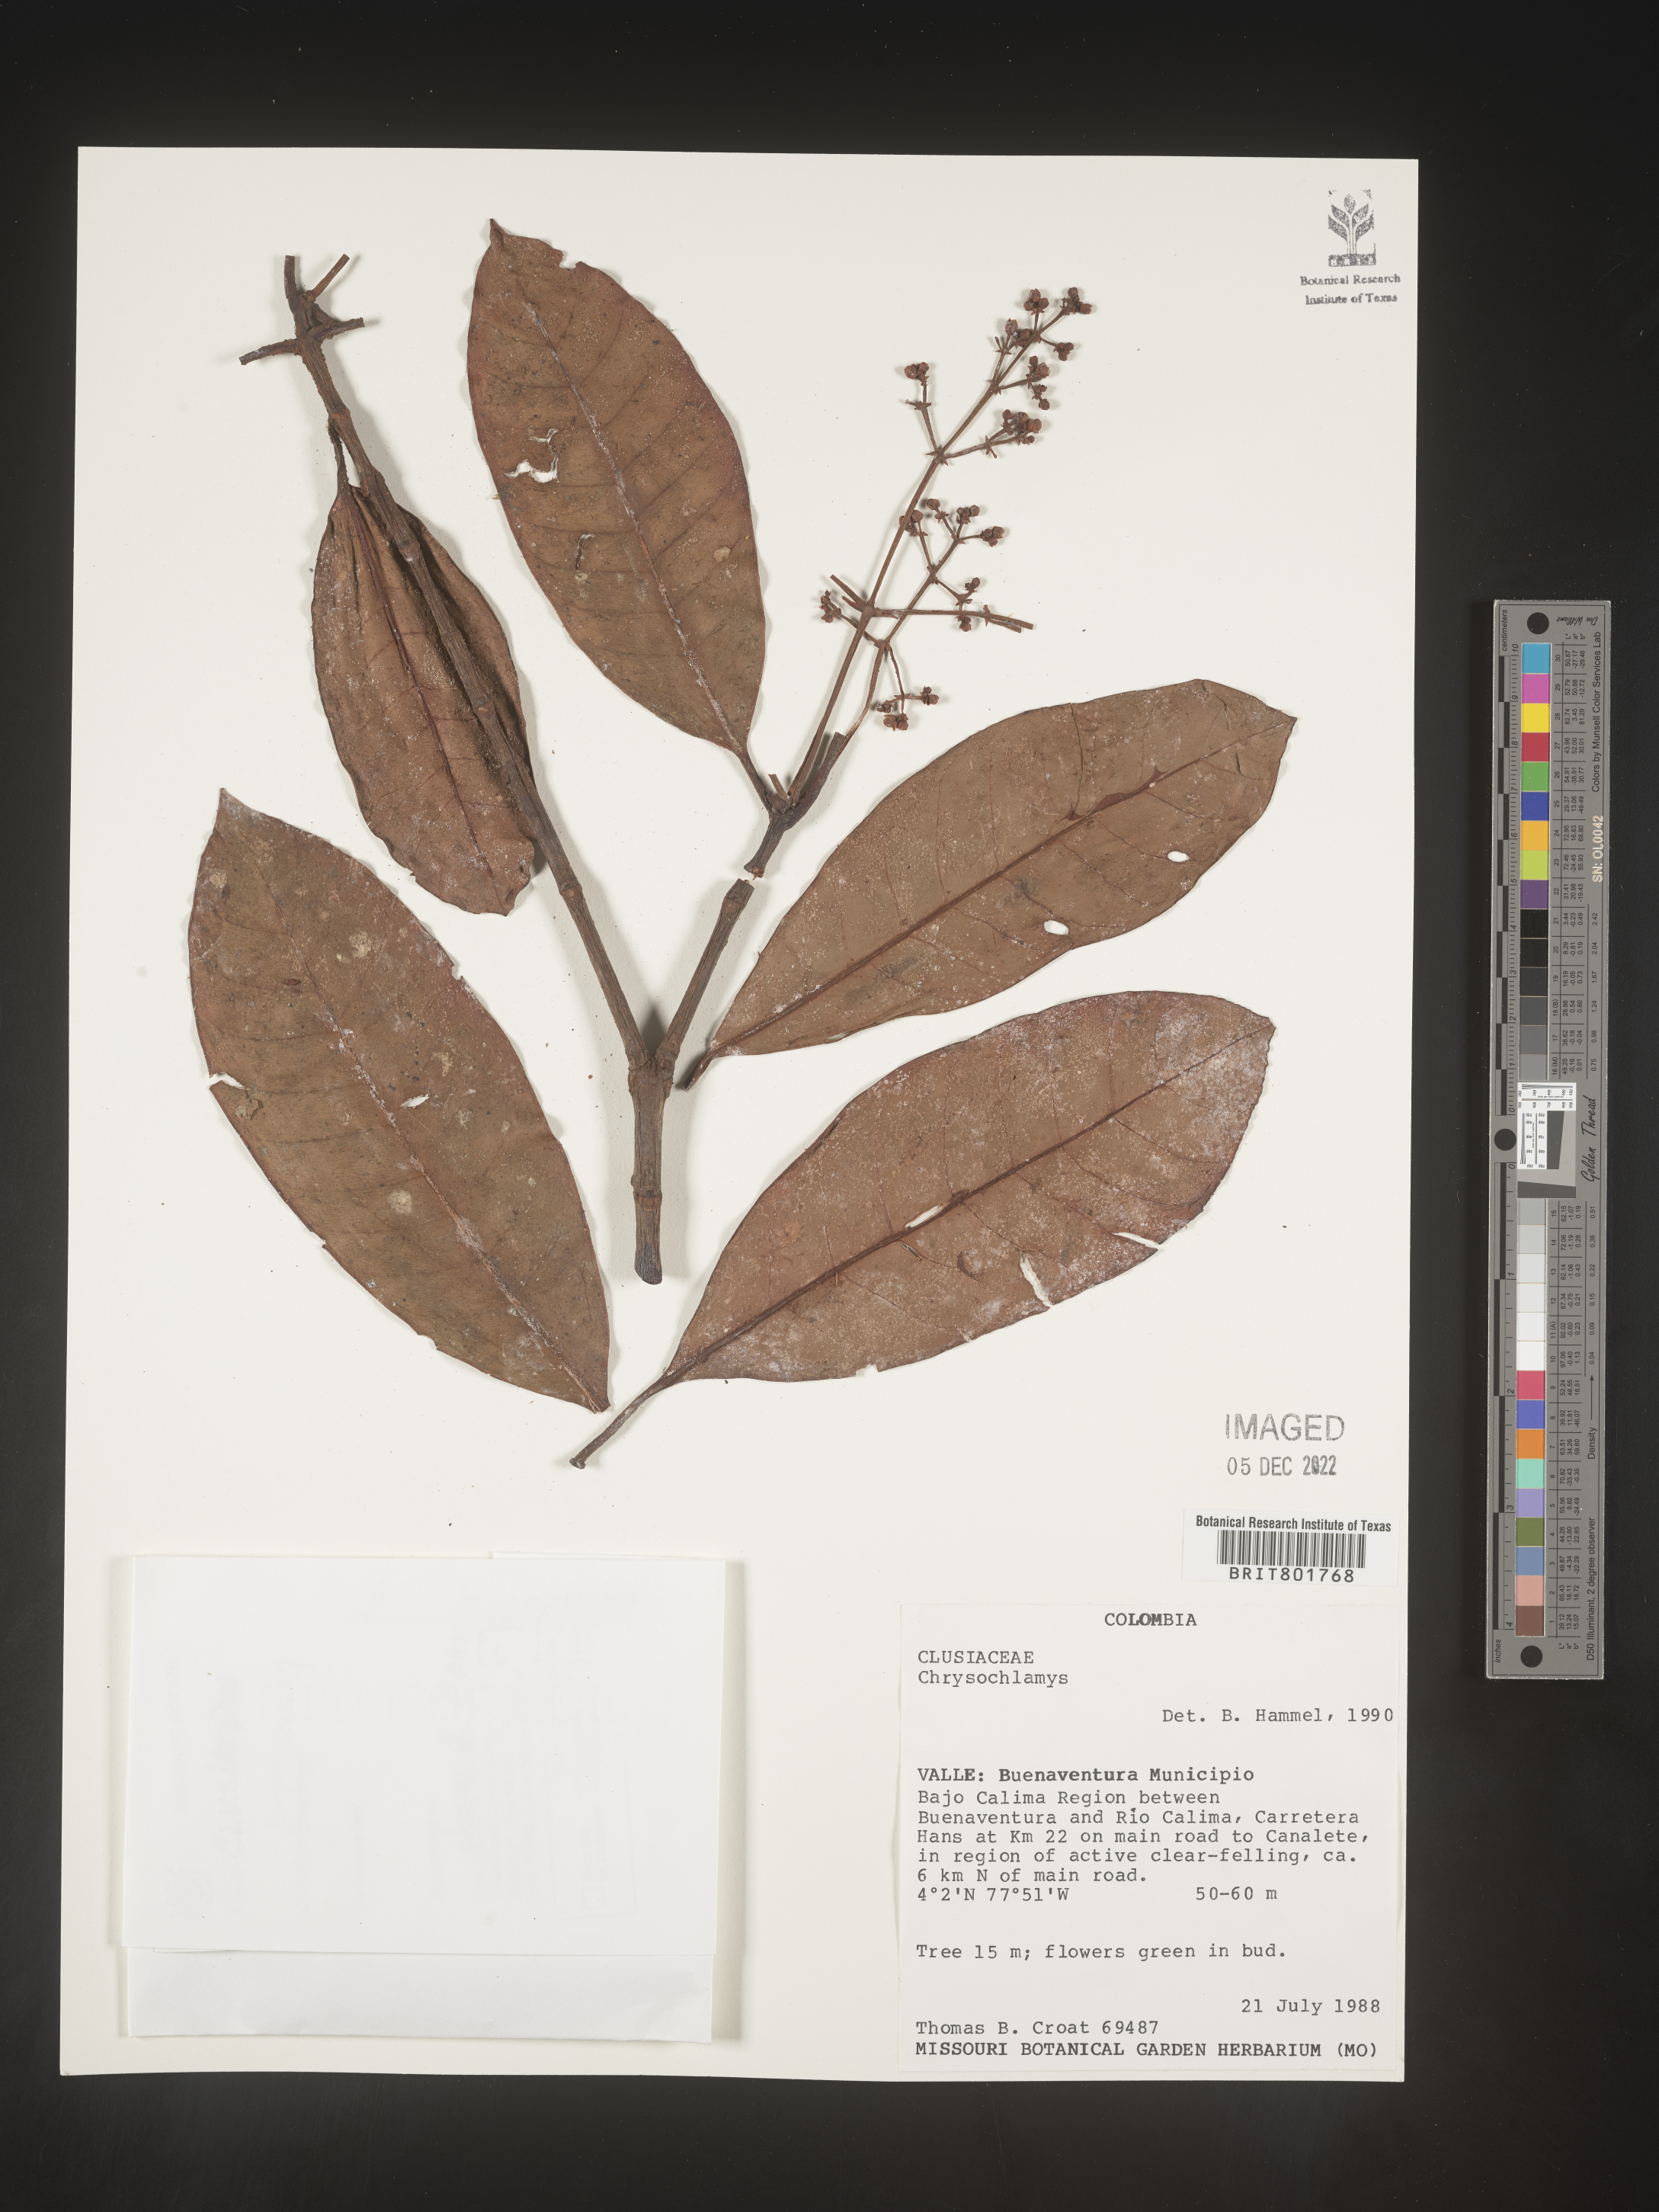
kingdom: Plantae
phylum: Tracheophyta
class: Magnoliopsida
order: Malpighiales
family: Clusiaceae
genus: Chrysochlamys
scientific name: Chrysochlamys
